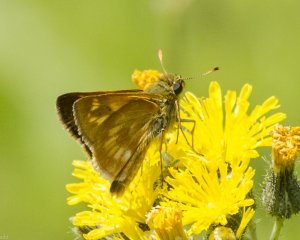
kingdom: Animalia
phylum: Arthropoda
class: Insecta
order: Lepidoptera
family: Hesperiidae
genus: Polites
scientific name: Polites
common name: Long Dash Skipper
